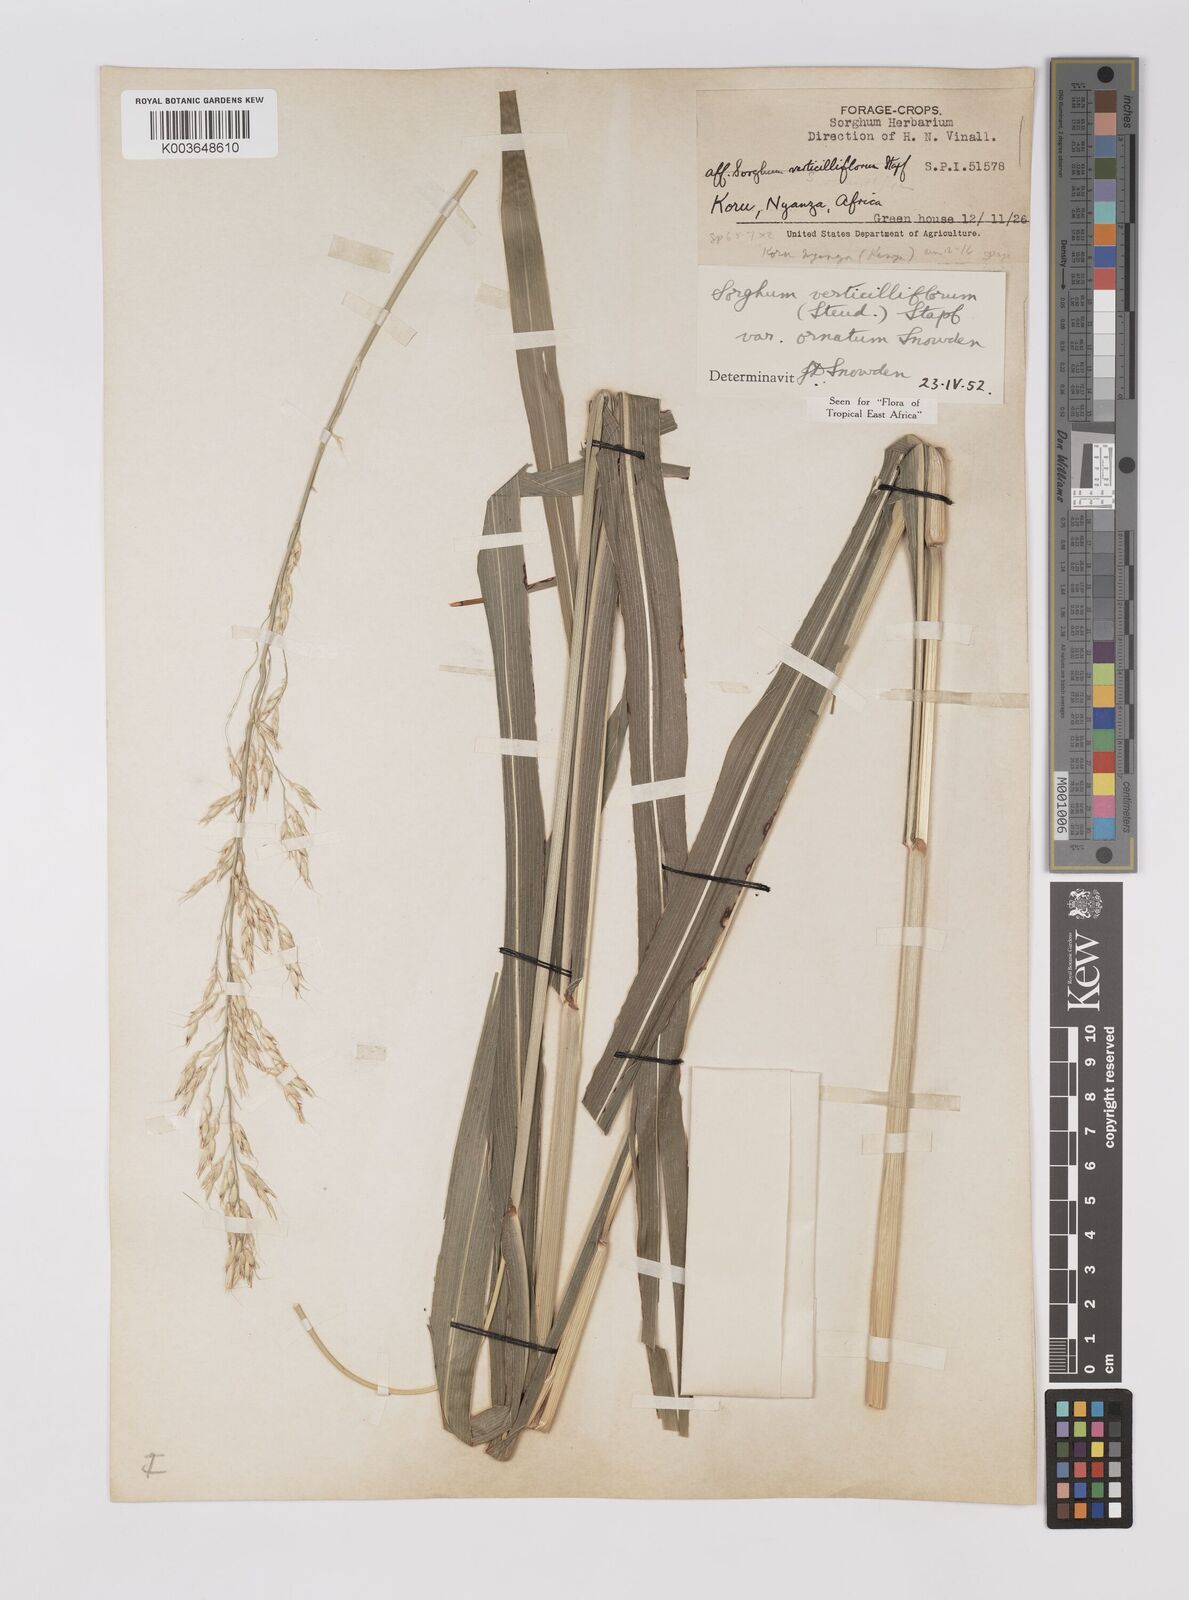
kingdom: Plantae
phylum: Tracheophyta
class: Liliopsida
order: Poales
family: Poaceae
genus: Sorghum
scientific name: Sorghum arundinaceum
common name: Sorghum
